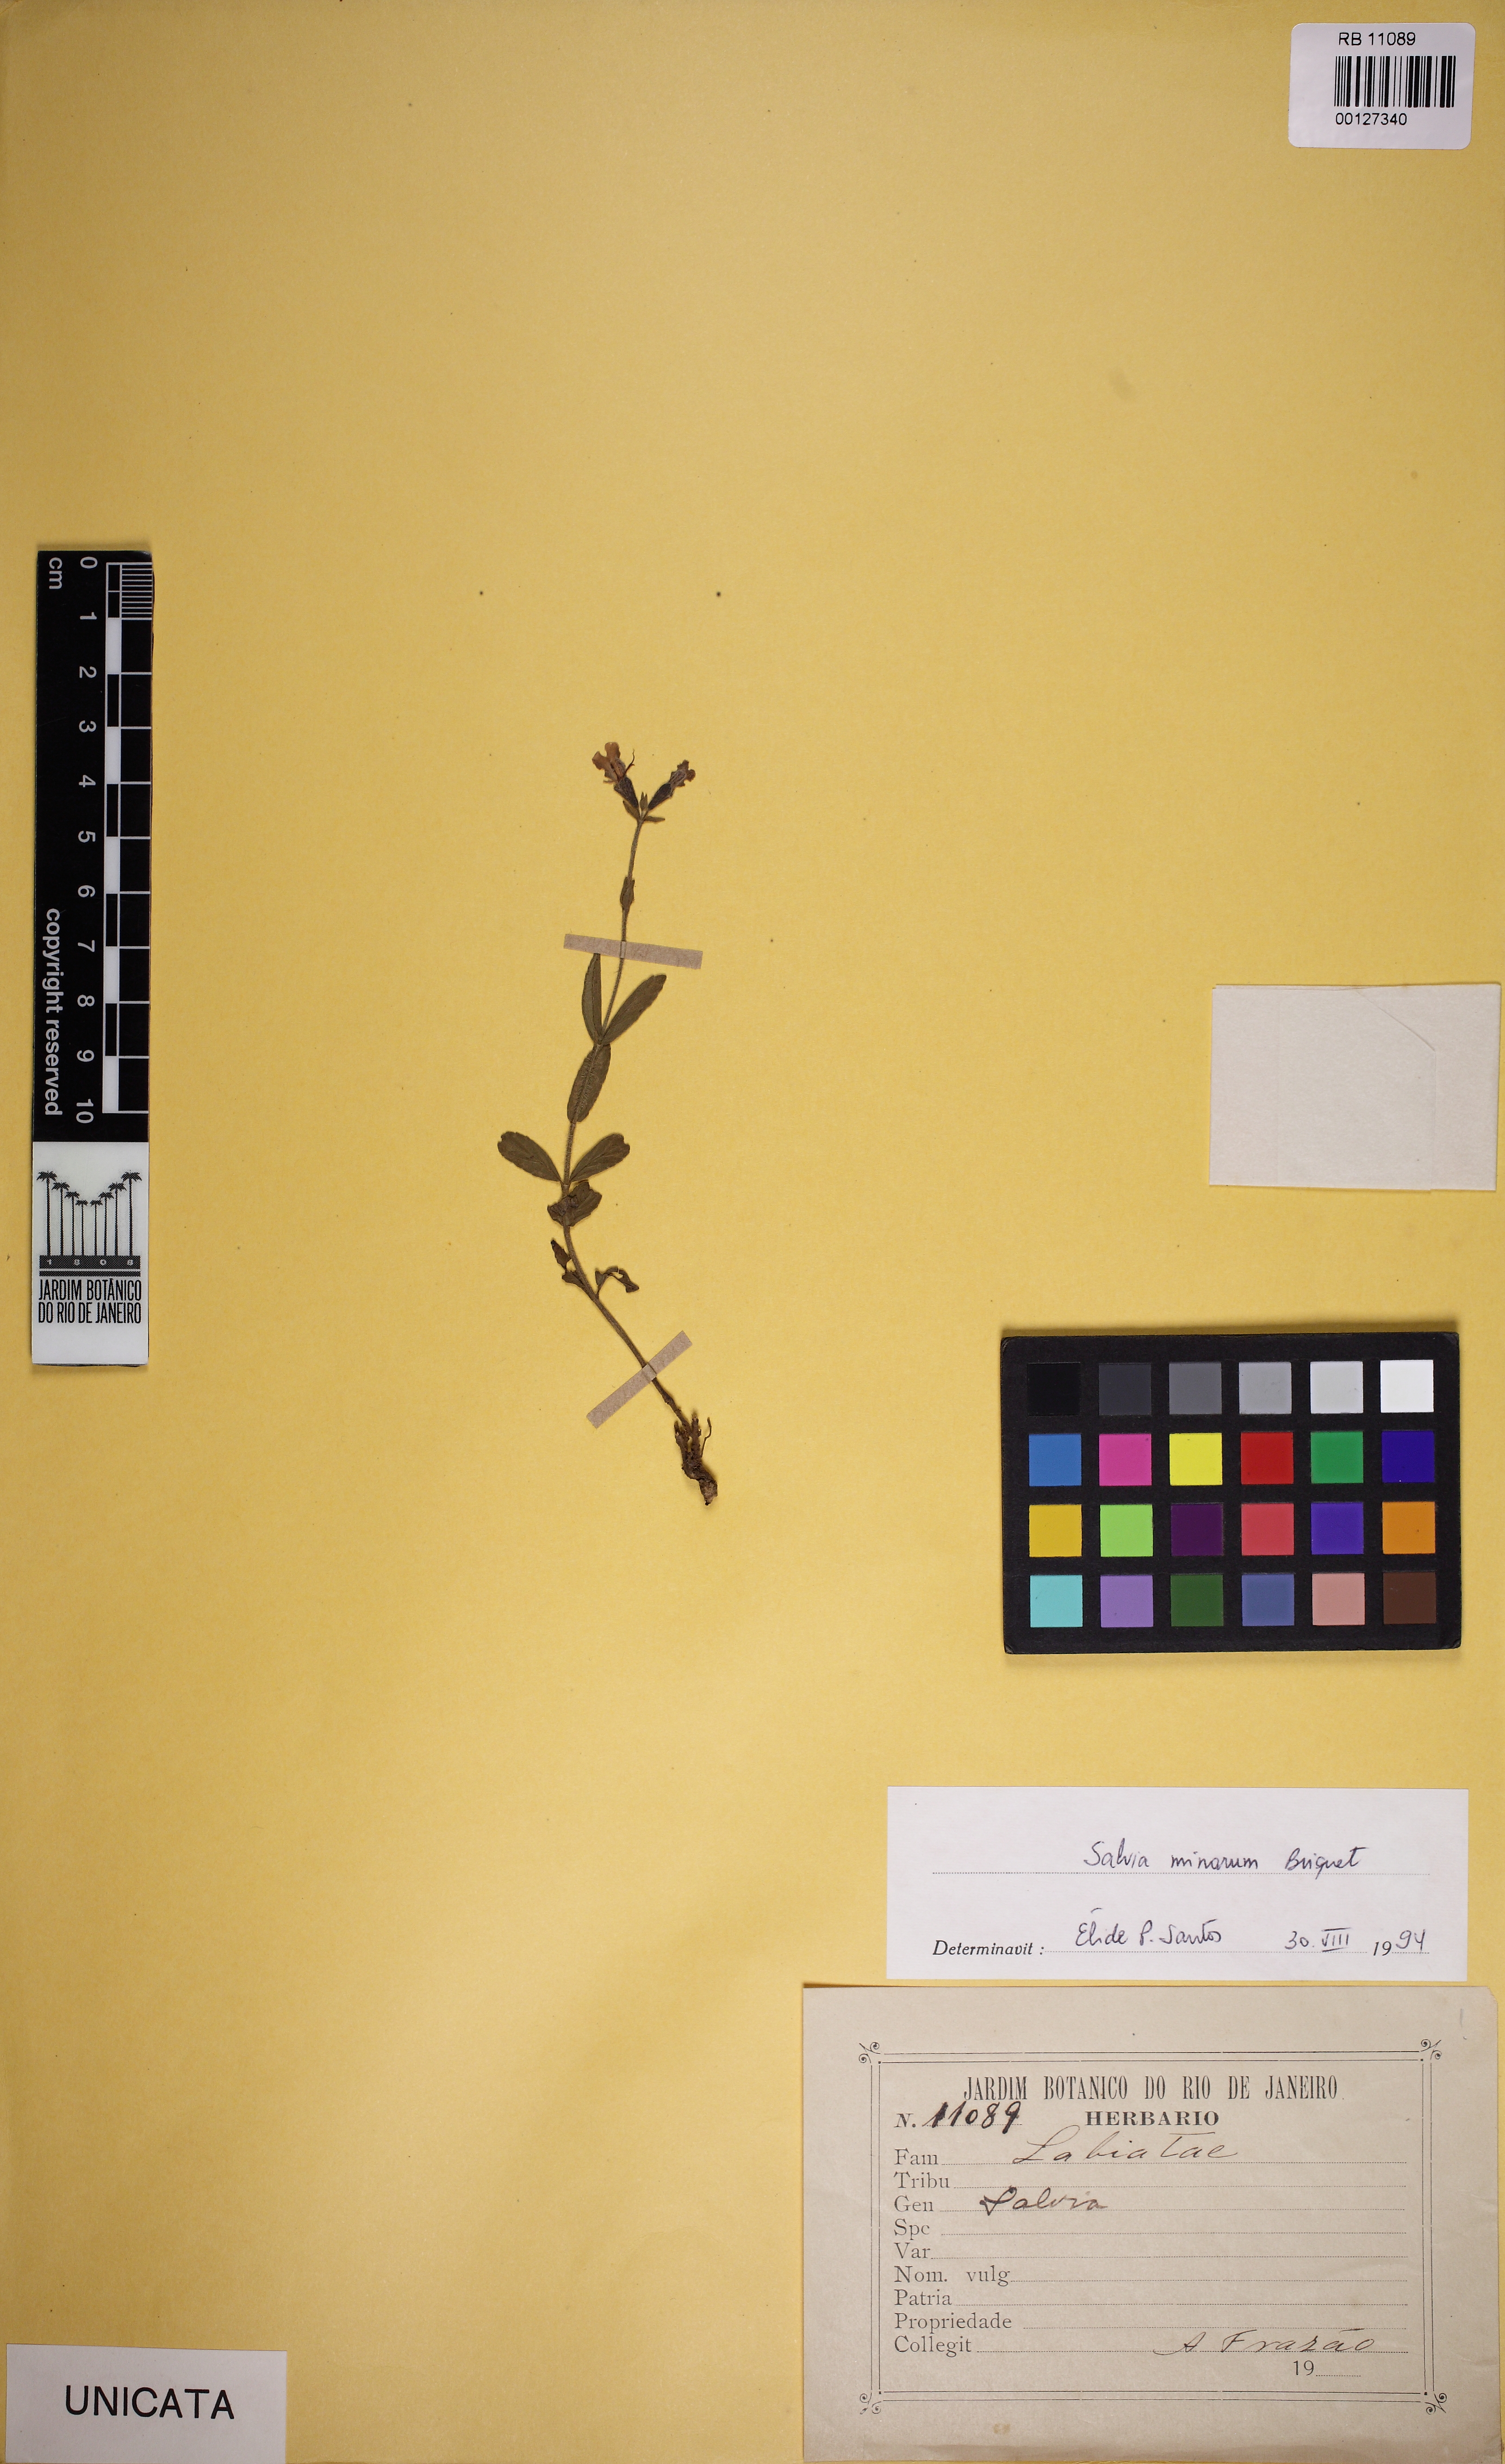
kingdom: Plantae
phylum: Tracheophyta
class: Magnoliopsida
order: Lamiales
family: Lamiaceae
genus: Salvia
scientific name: Salvia minarum
